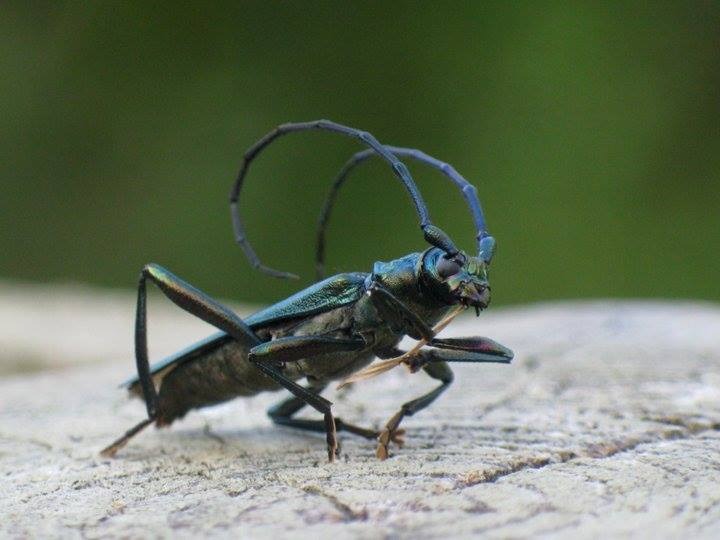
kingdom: Animalia
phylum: Arthropoda
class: Insecta
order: Coleoptera
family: Cerambycidae
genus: Aromia
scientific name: Aromia moschata
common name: Moskusbuk
